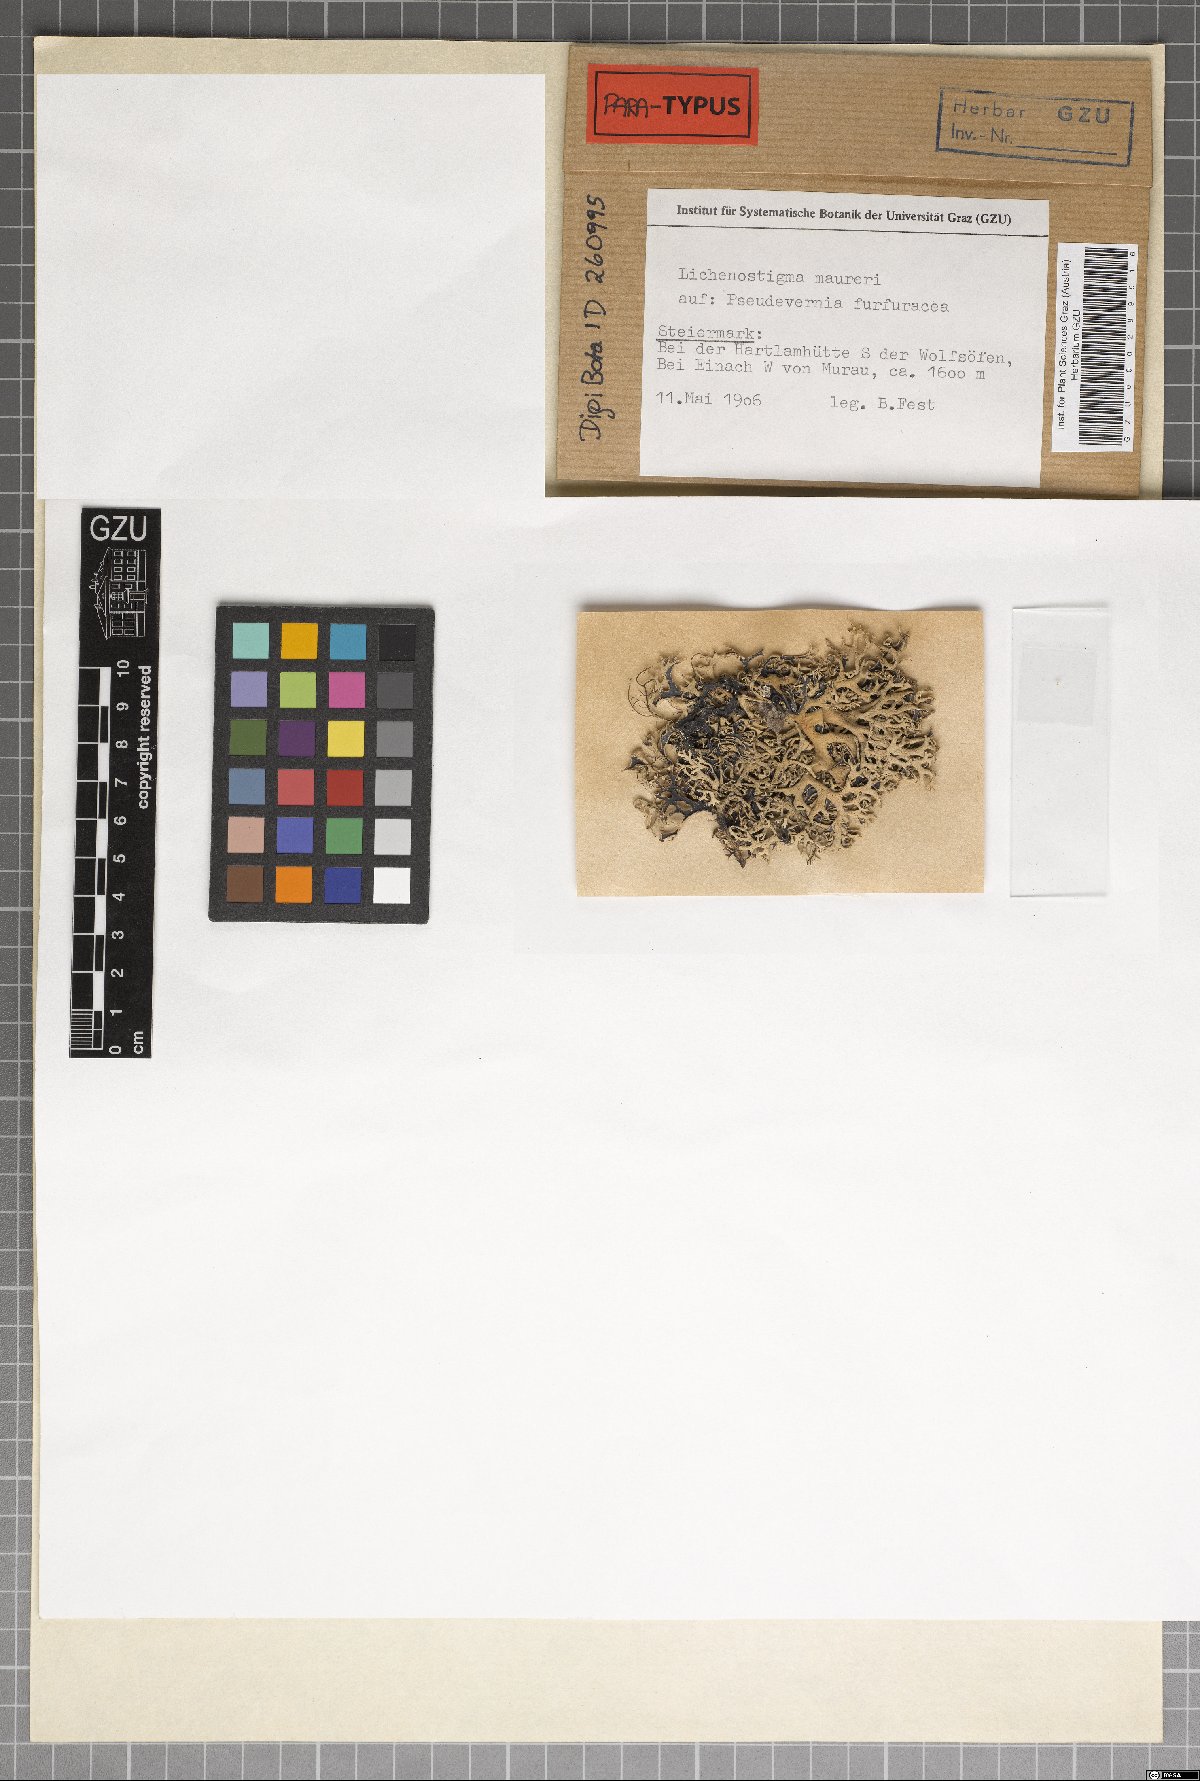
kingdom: Fungi
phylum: Ascomycota
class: Arthoniomycetes
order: Lichenostigmatales
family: Phaeococcomycetaceae
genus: Lichenostigma
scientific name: Lichenostigma maureri
